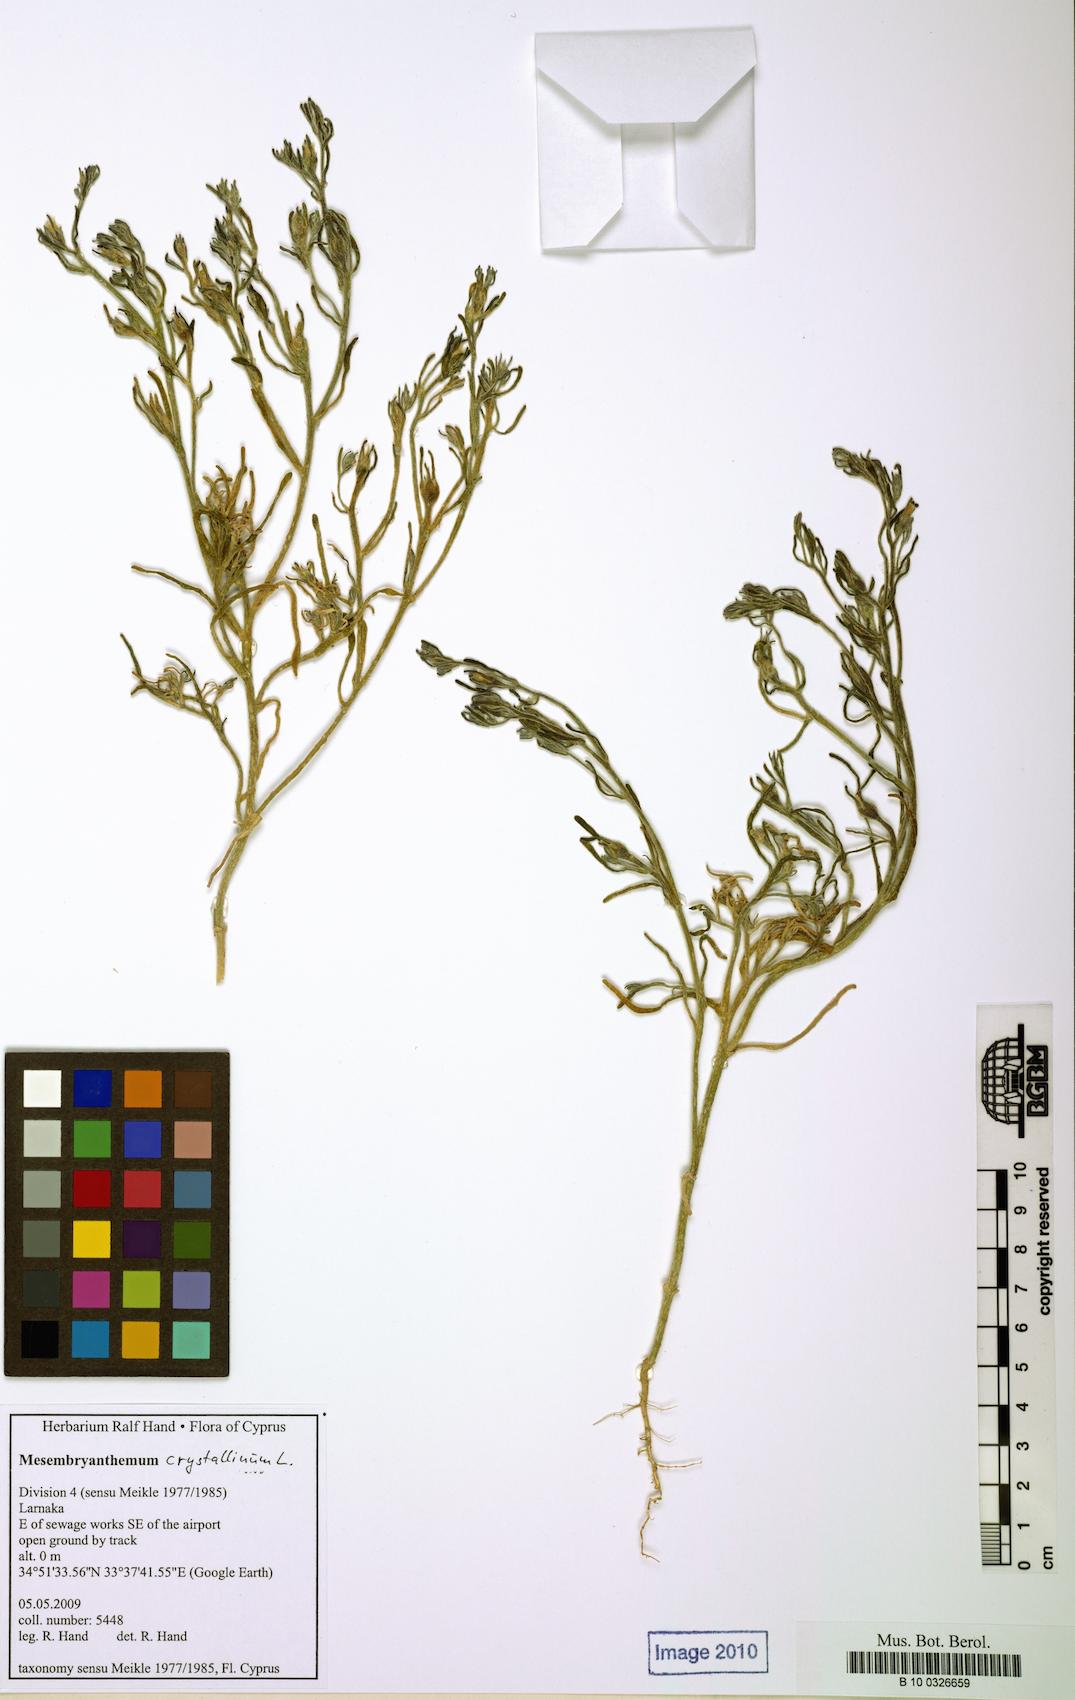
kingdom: Plantae
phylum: Tracheophyta
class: Magnoliopsida
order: Caryophyllales
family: Aizoaceae
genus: Mesembryanthemum
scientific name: Mesembryanthemum crystallinum
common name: Common iceplant
